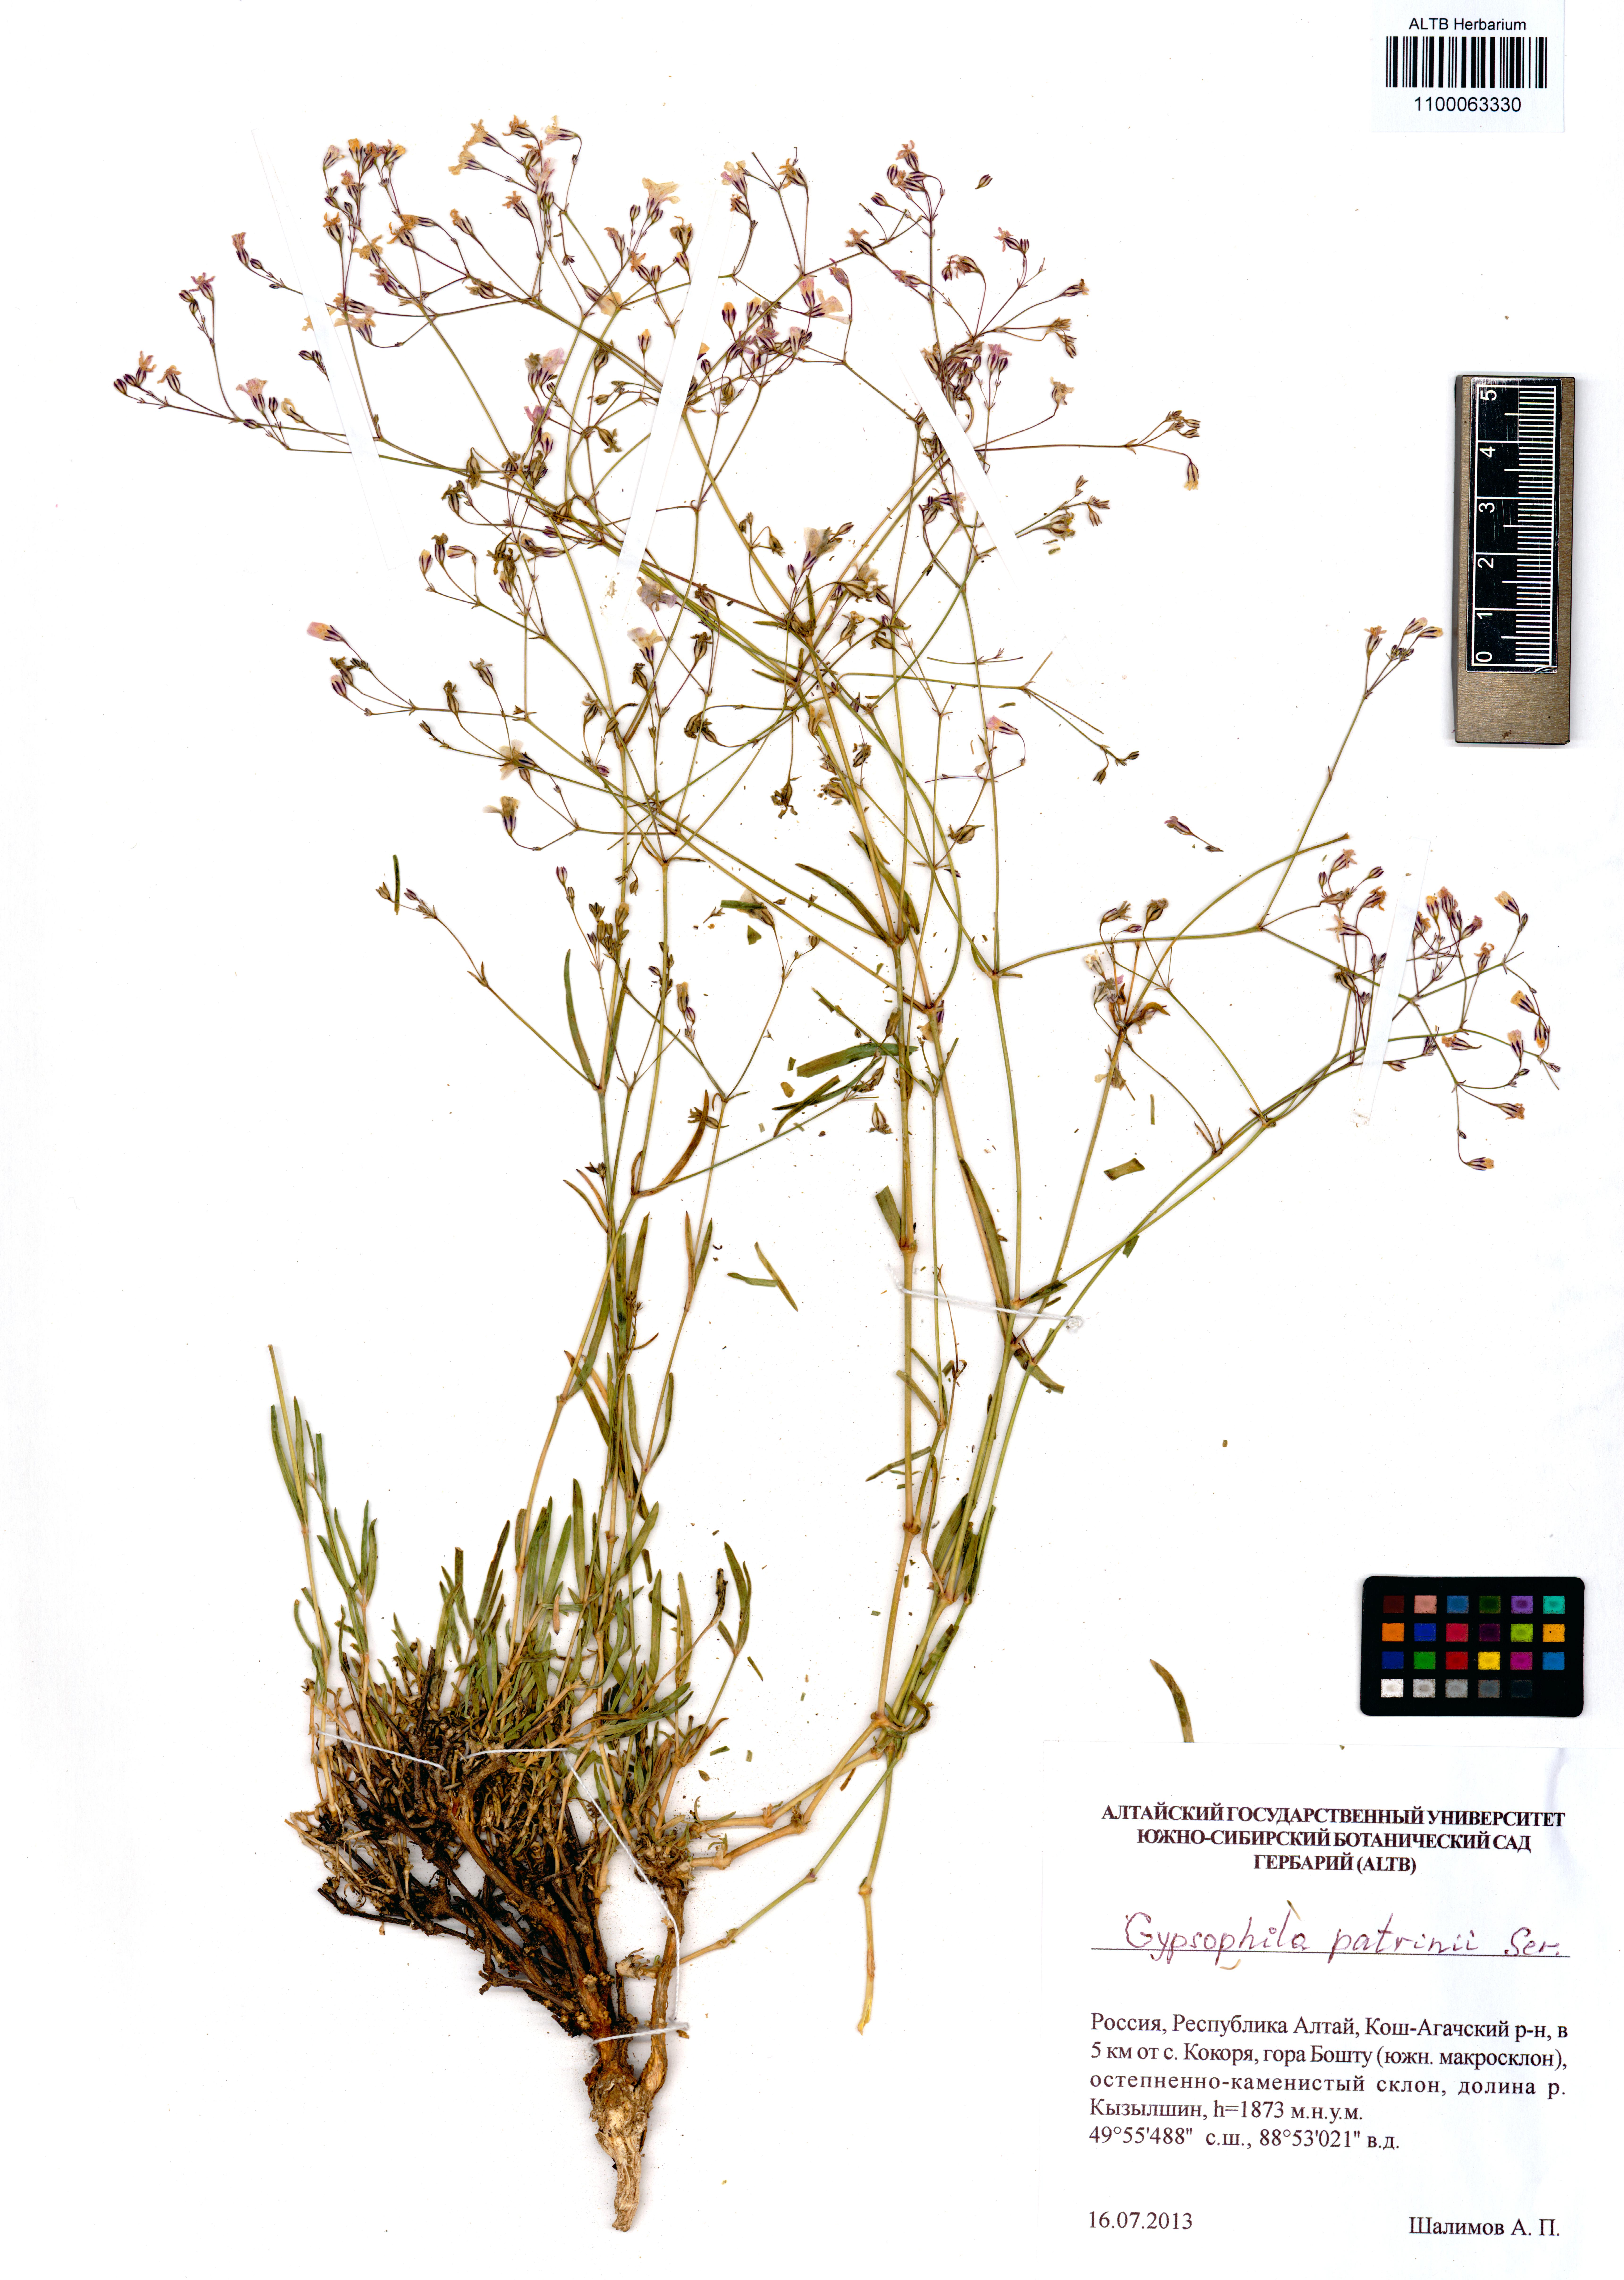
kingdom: Plantae
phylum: Tracheophyta
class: Magnoliopsida
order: Caryophyllales
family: Caryophyllaceae
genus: Gypsophila
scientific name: Gypsophila patrinii
